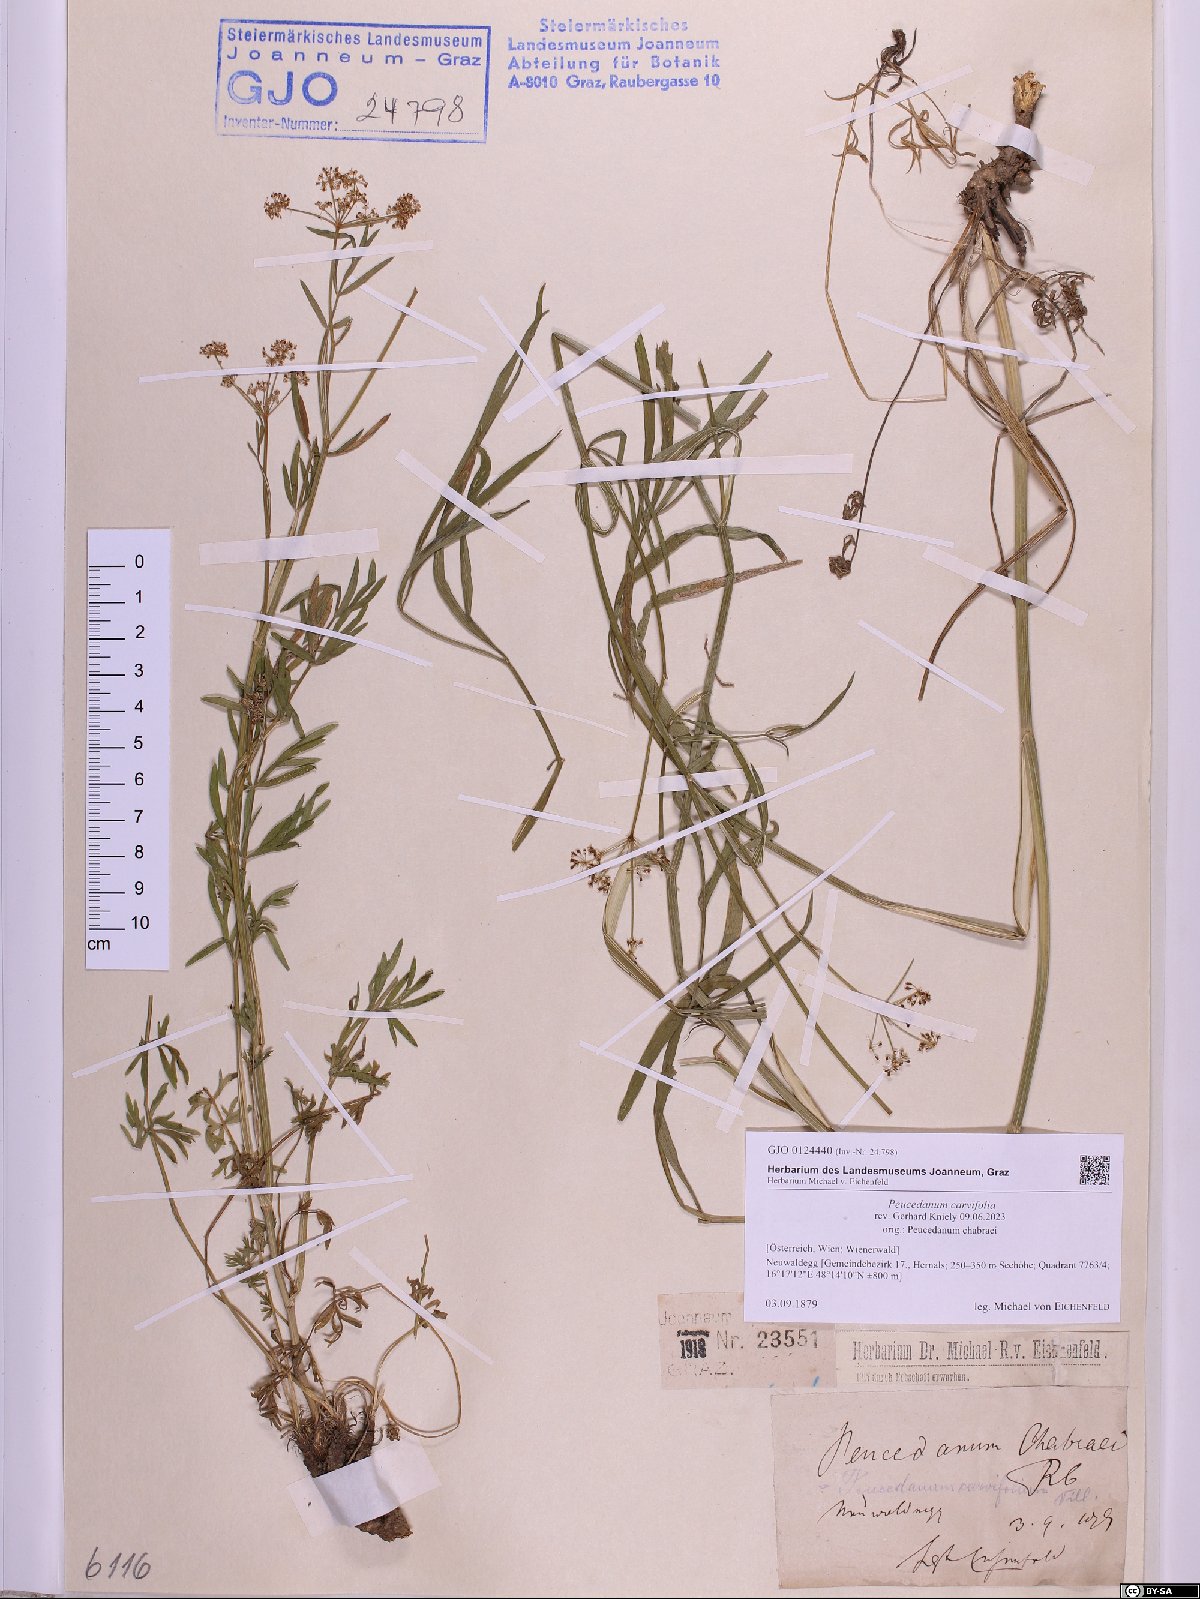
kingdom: Plantae
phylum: Tracheophyta
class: Magnoliopsida
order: Apiales
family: Apiaceae
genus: Dichoropetalum
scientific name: Dichoropetalum carvifolia
